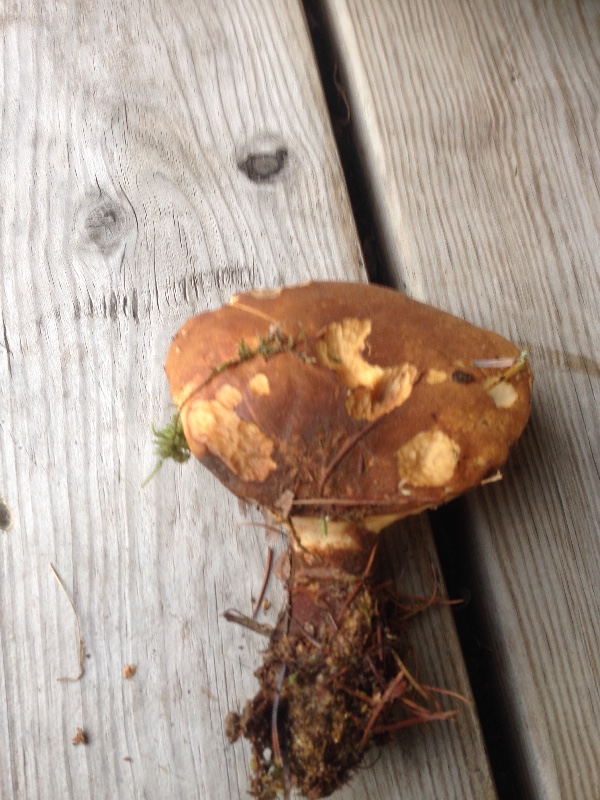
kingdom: Fungi
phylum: Basidiomycota
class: Agaricomycetes
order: Boletales
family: Tapinellaceae
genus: Tapinella
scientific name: Tapinella atrotomentosa
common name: sortfiltet viftesvamp
